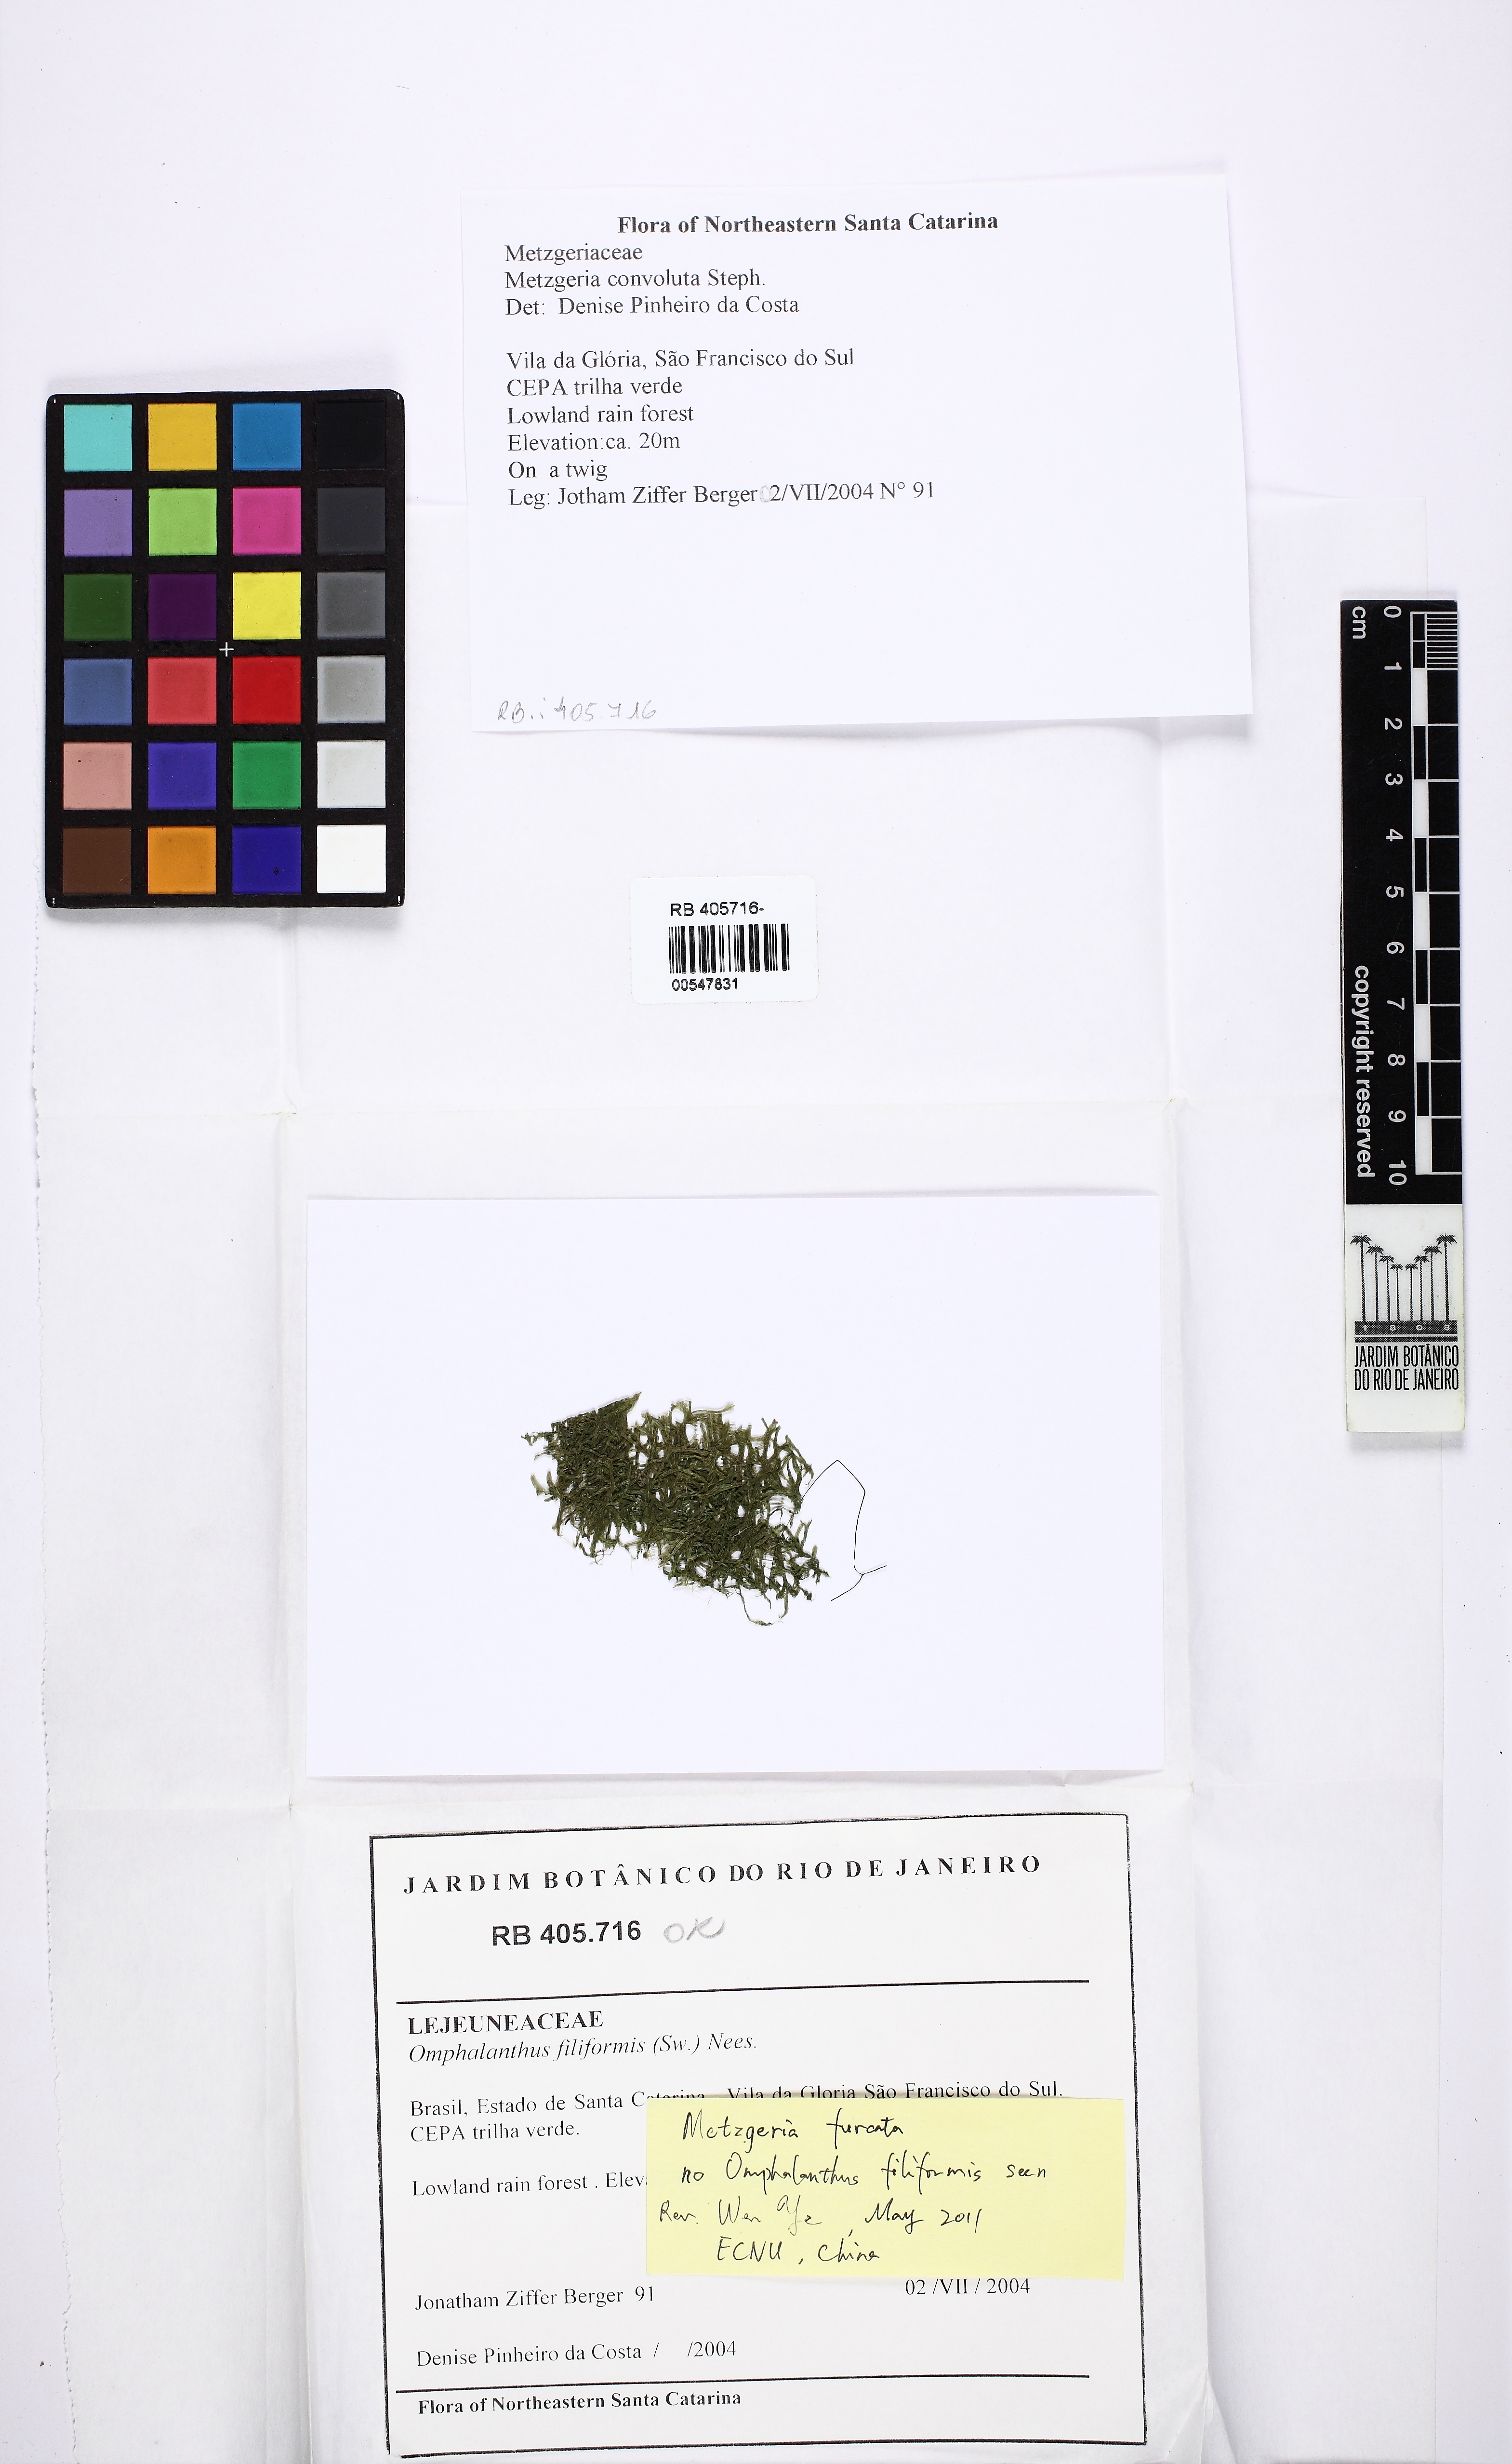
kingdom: Plantae
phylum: Marchantiophyta
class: Jungermanniopsida
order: Metzgeriales
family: Metzgeriaceae
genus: Metzgeria
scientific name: Metzgeria furcata
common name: Forked veilwort
